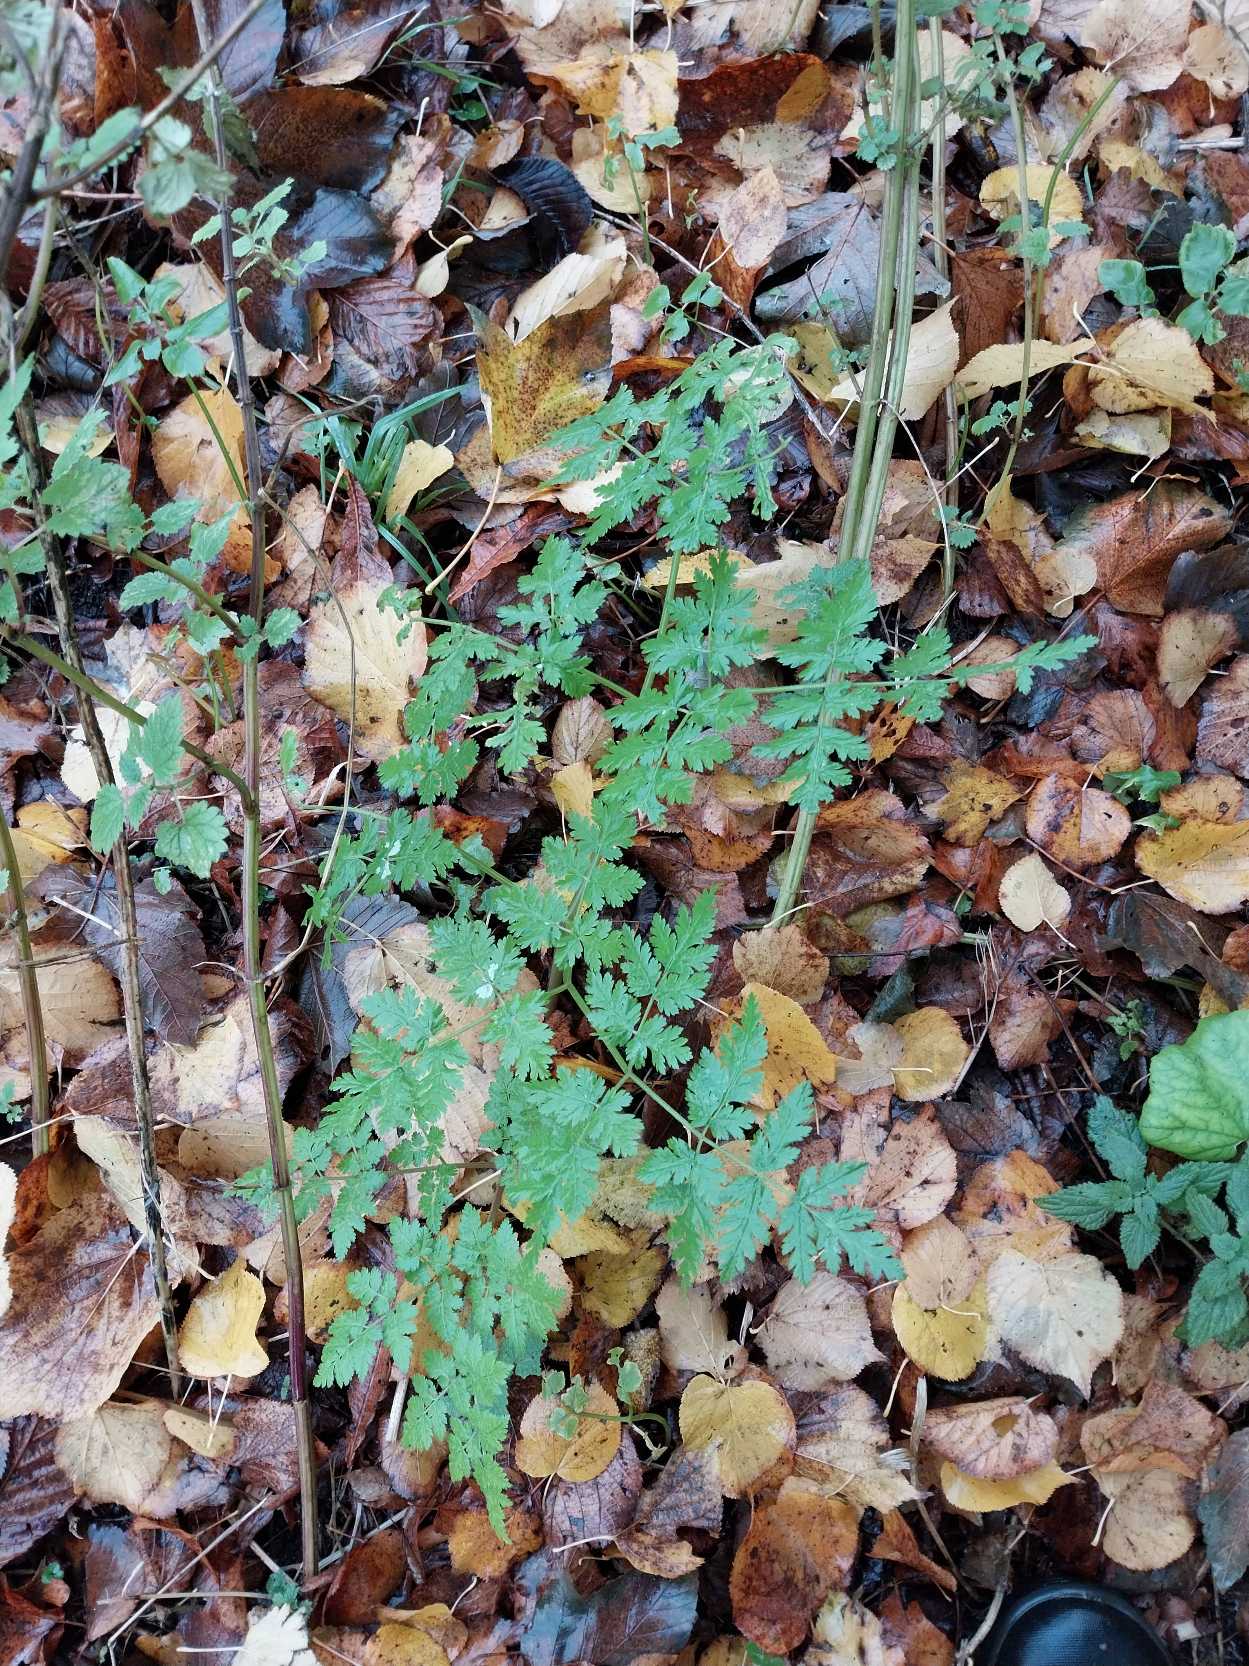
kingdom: Plantae
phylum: Tracheophyta
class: Magnoliopsida
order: Apiales
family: Apiaceae
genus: Myrrhis
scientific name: Myrrhis odorata
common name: Sødskærm
